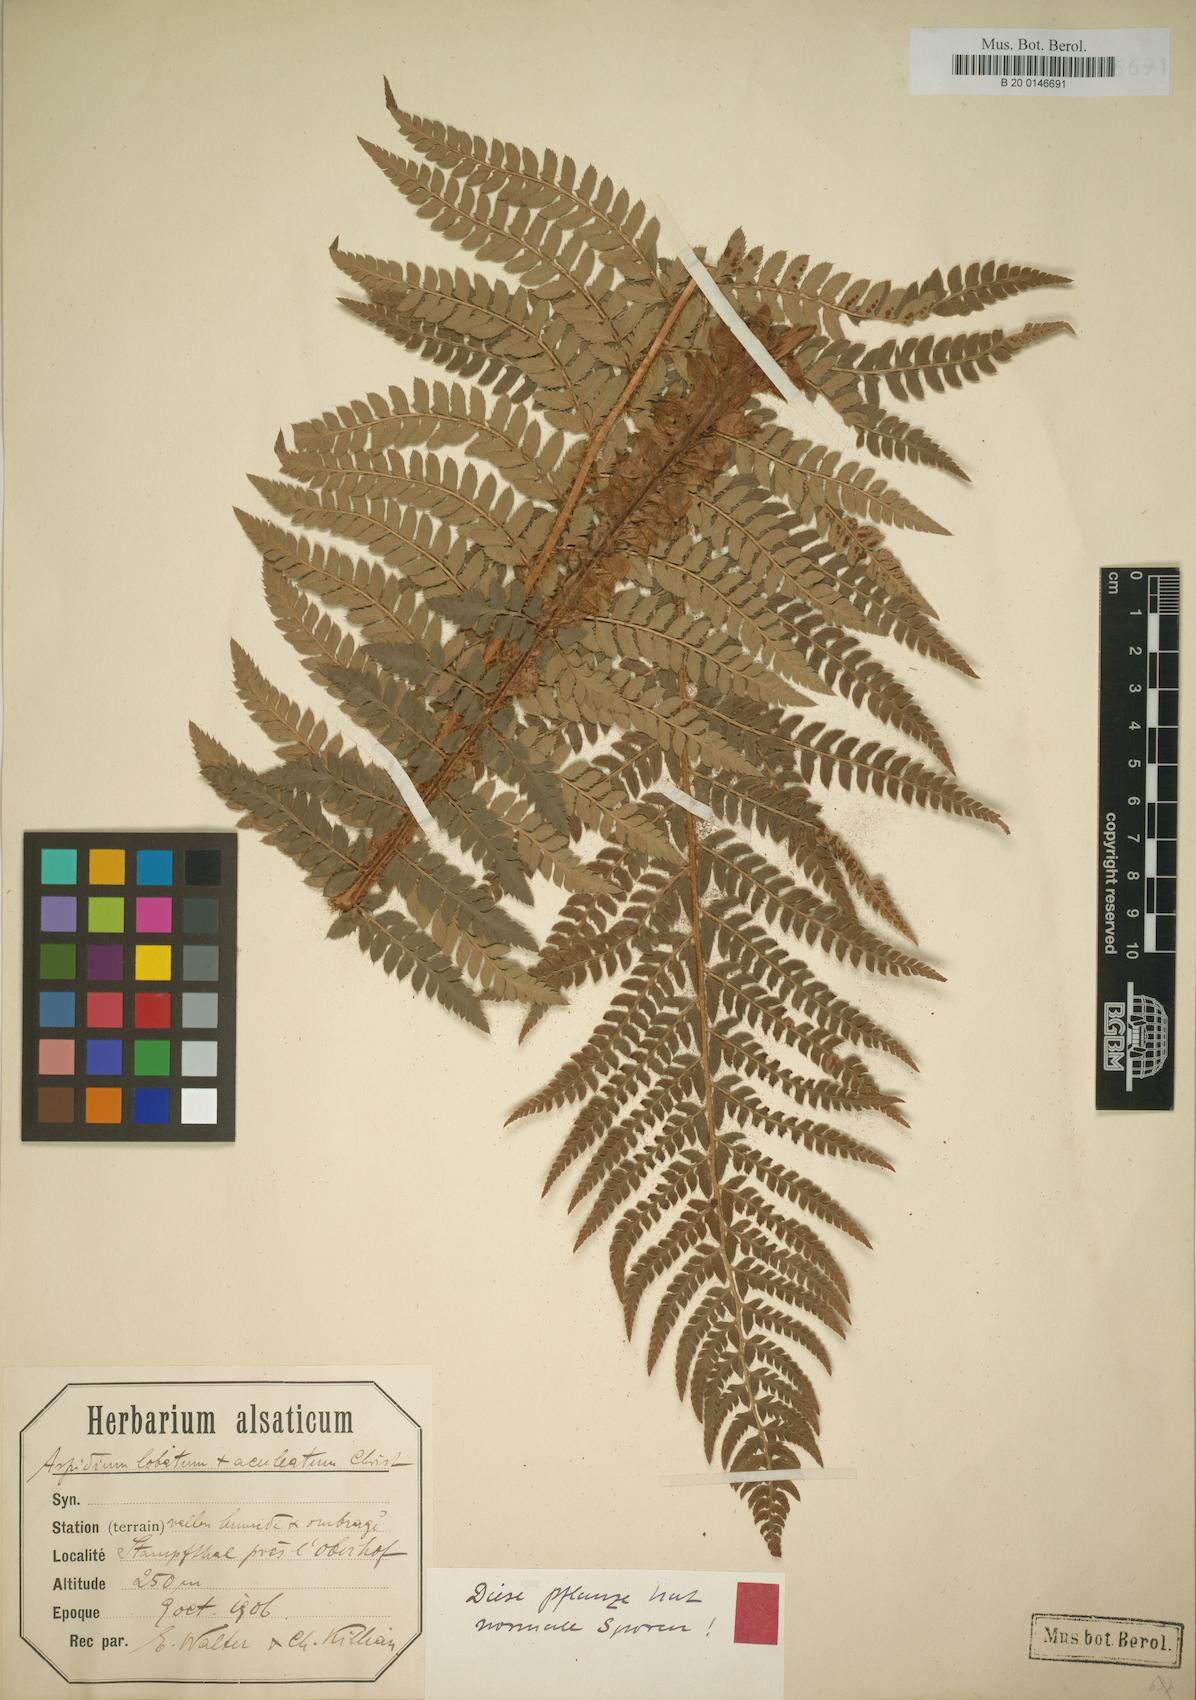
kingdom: Plantae
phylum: Tracheophyta
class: Polypodiopsida
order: Polypodiales
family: Dryopteridaceae
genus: Polystichum
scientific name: Polystichum bicknellii
